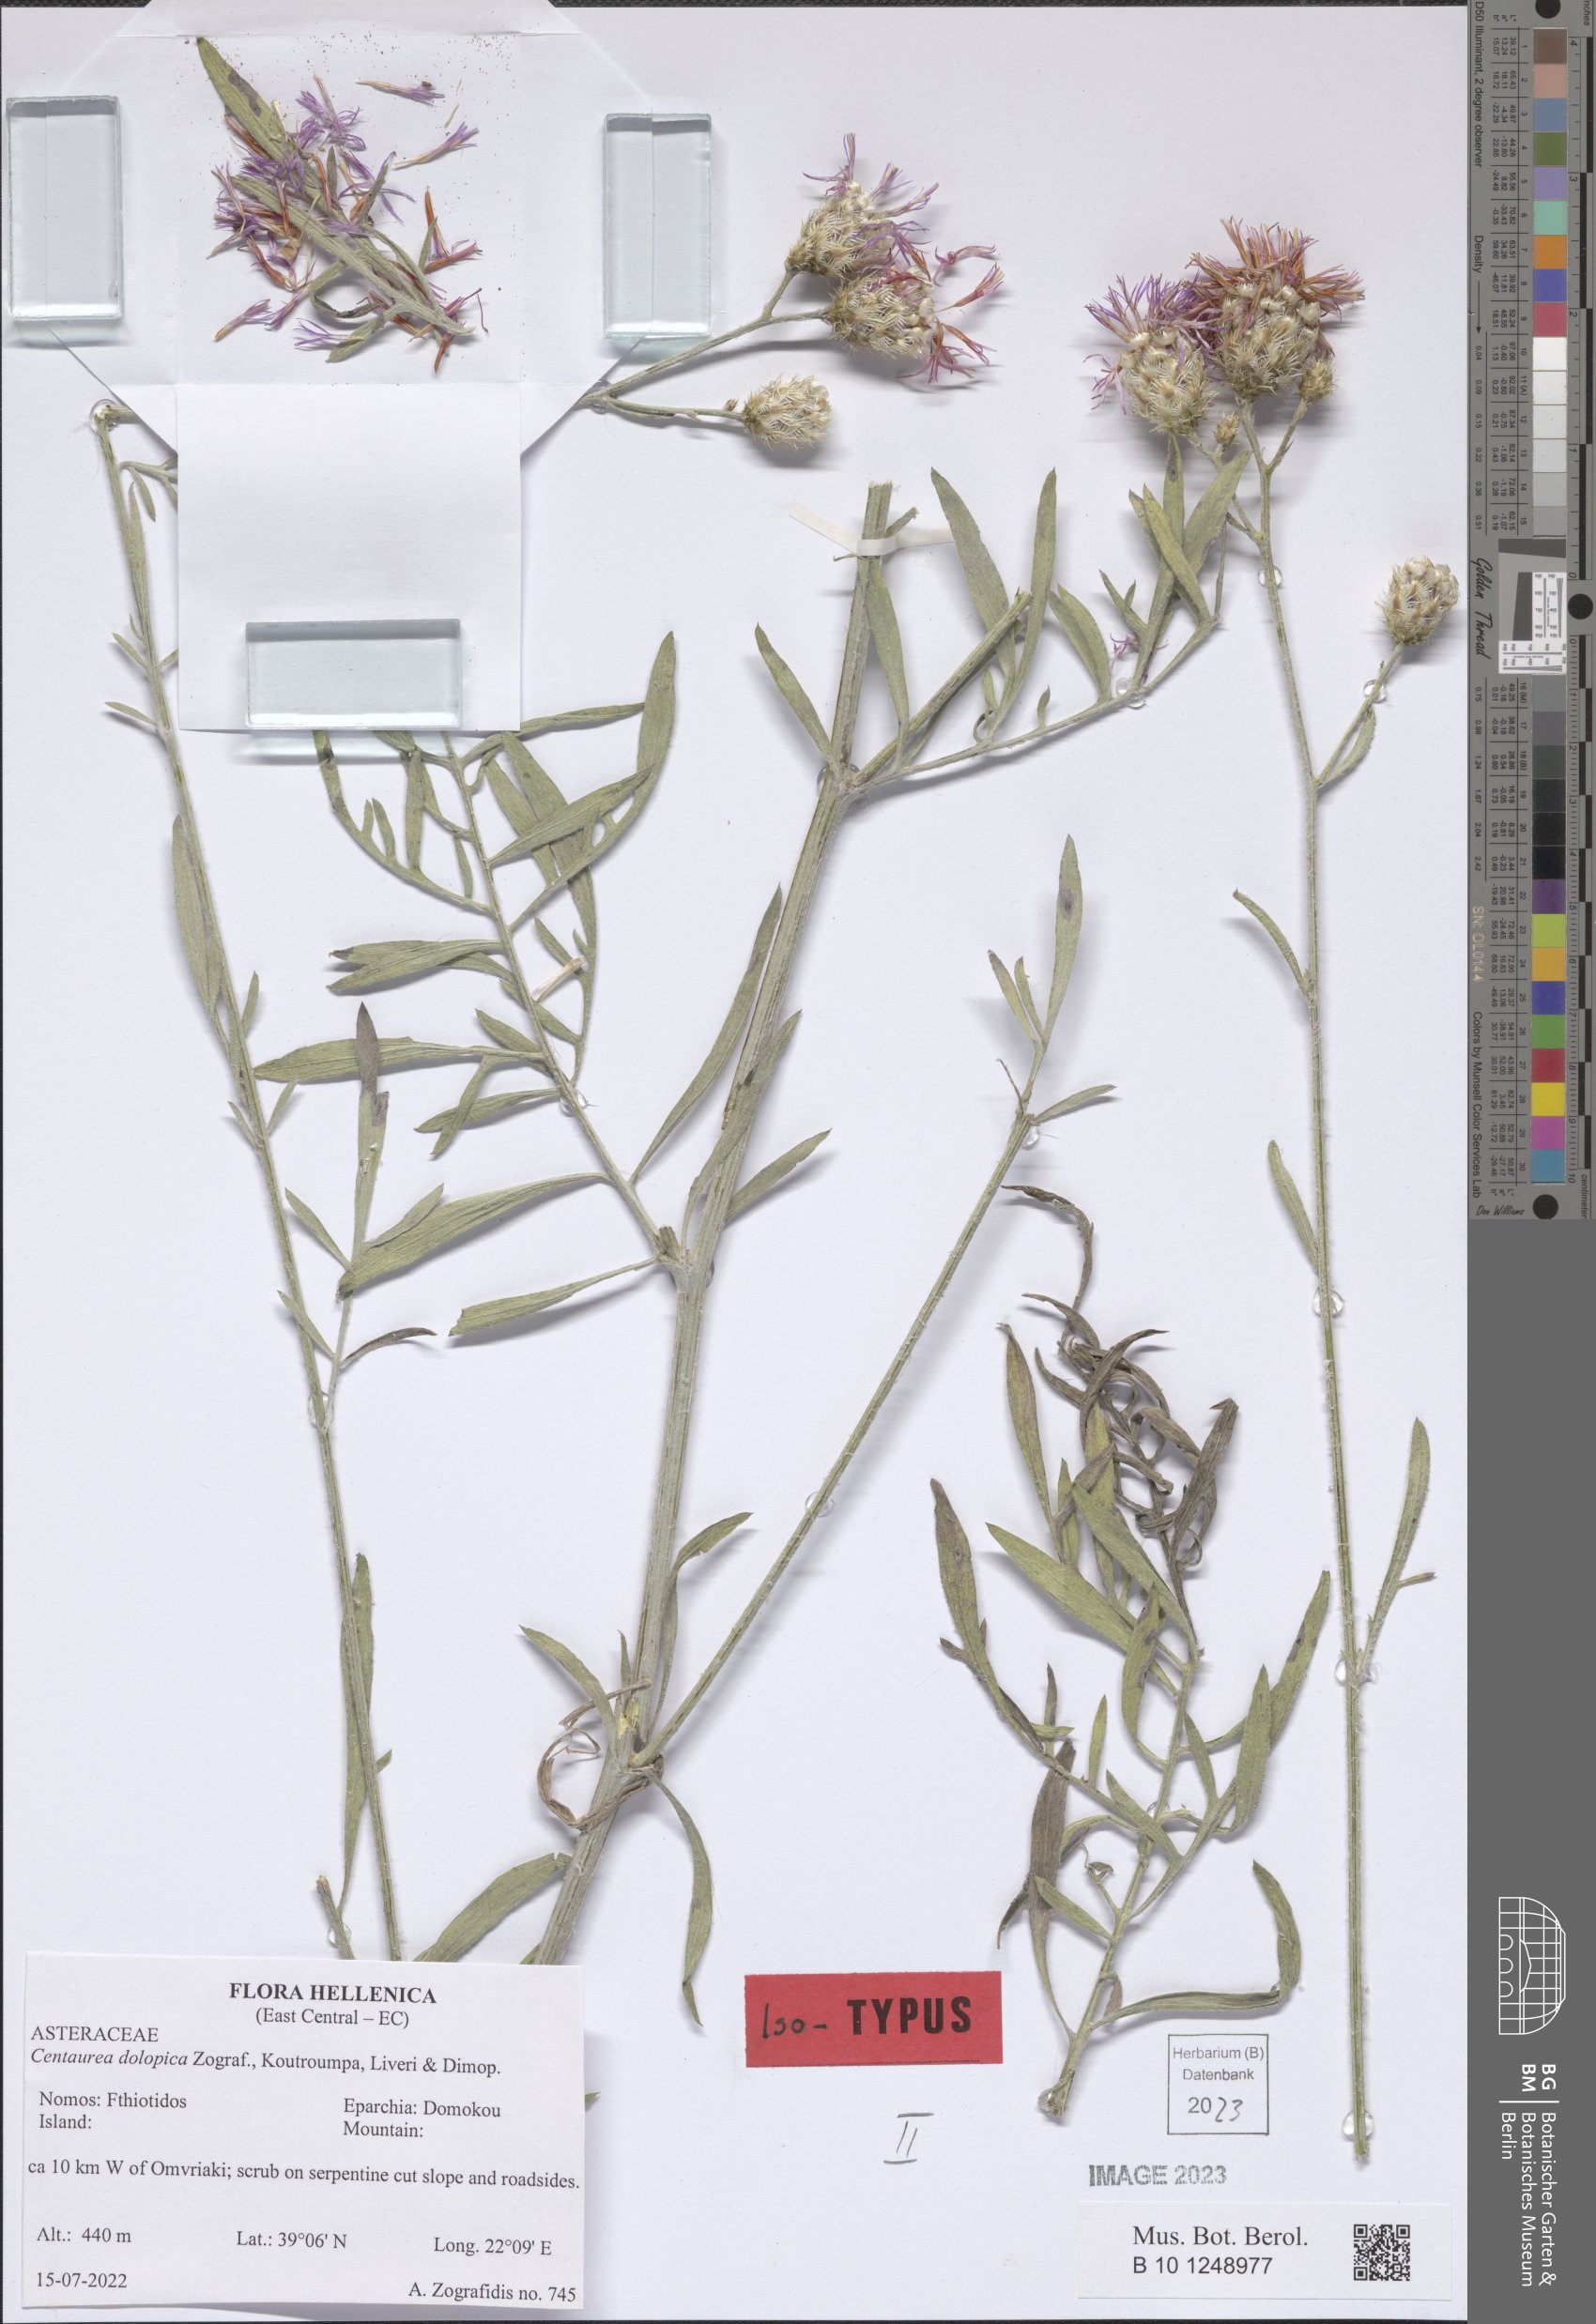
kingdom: Plantae
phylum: Tracheophyta
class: Magnoliopsida
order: Asterales
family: Asteraceae
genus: Centaurea
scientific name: Centaurea dolopica
